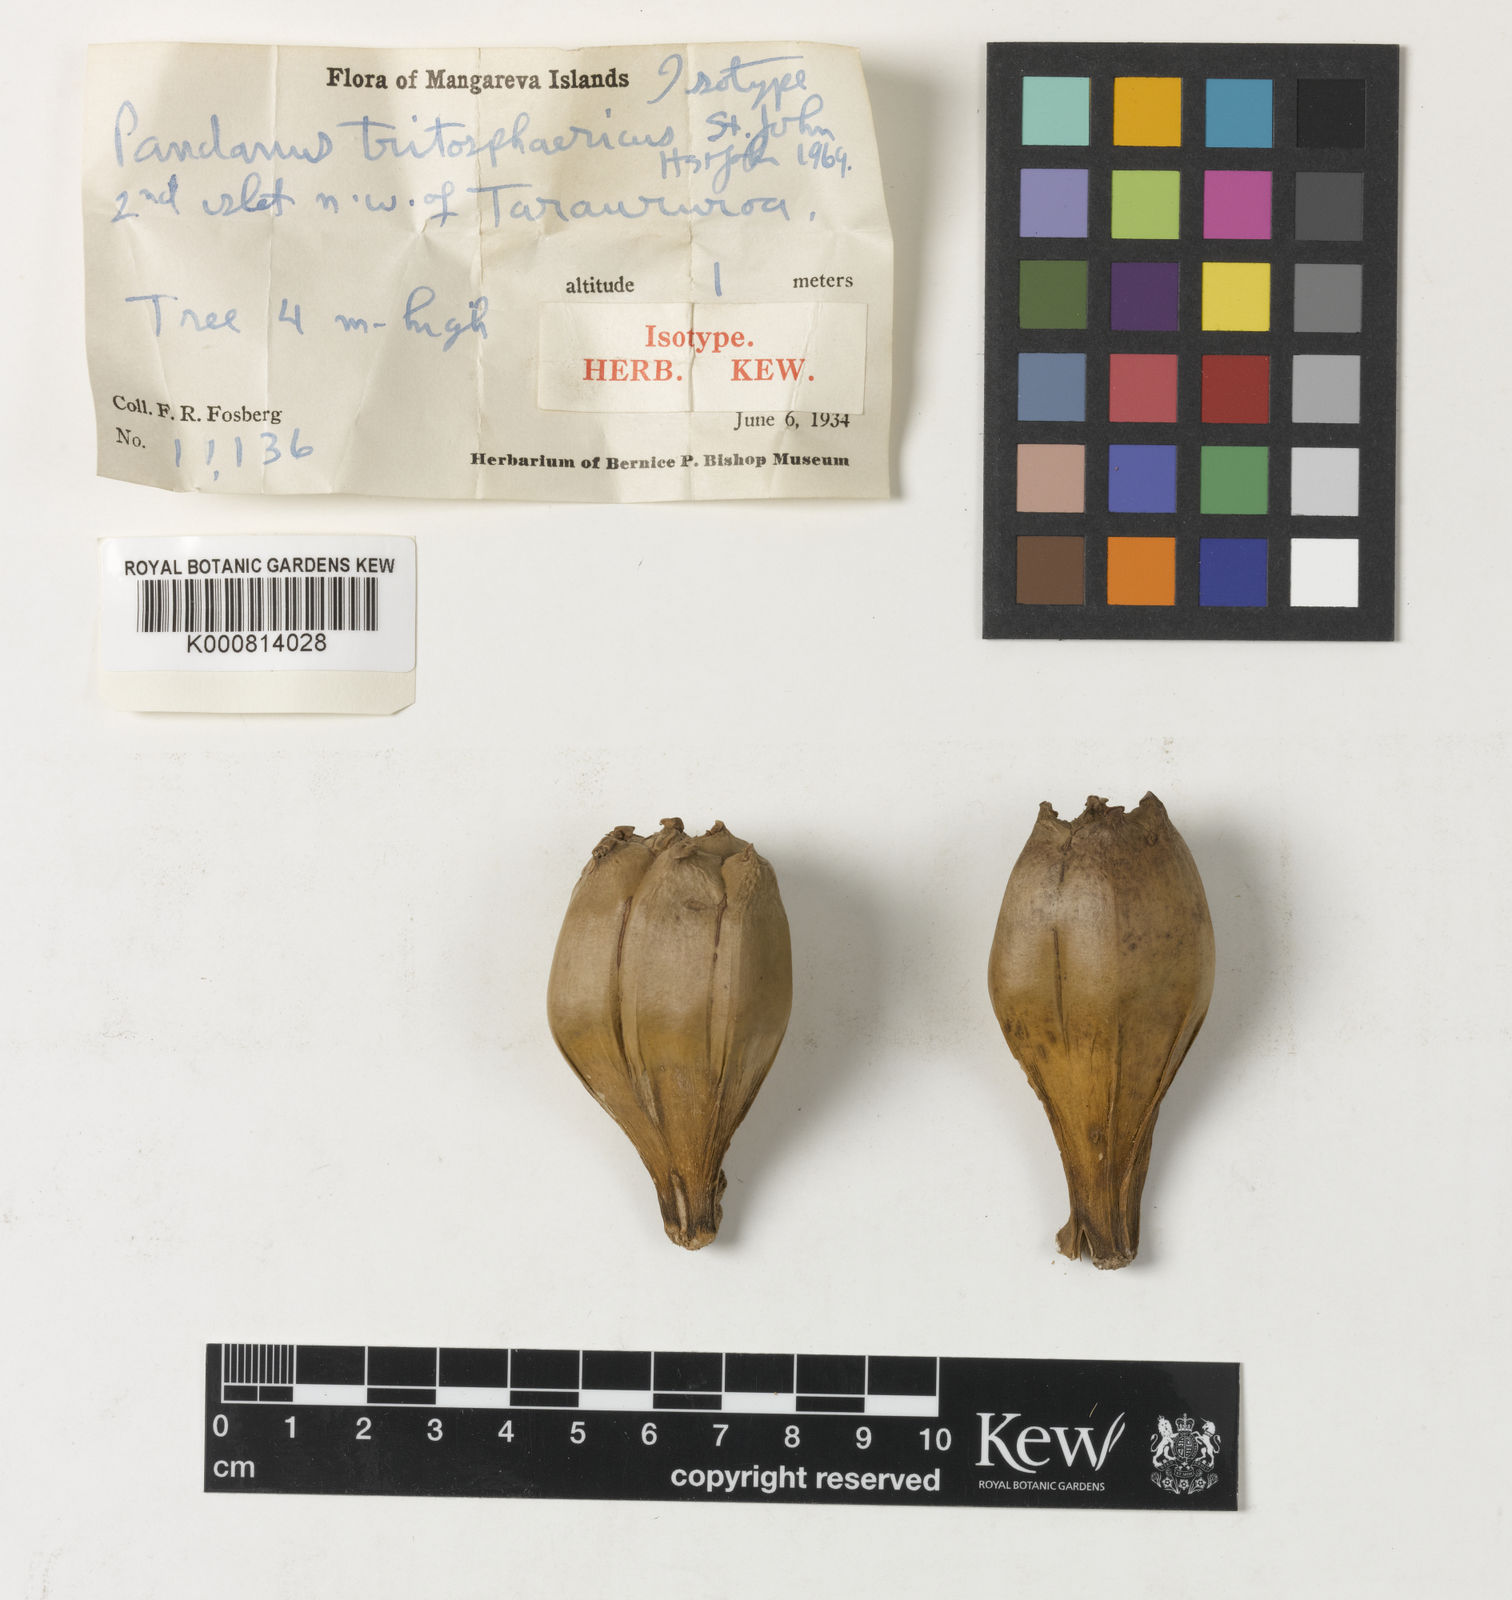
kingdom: Plantae
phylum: Tracheophyta
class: Liliopsida
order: Pandanales
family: Pandanaceae
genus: Pandanus
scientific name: Pandanus tectorius
